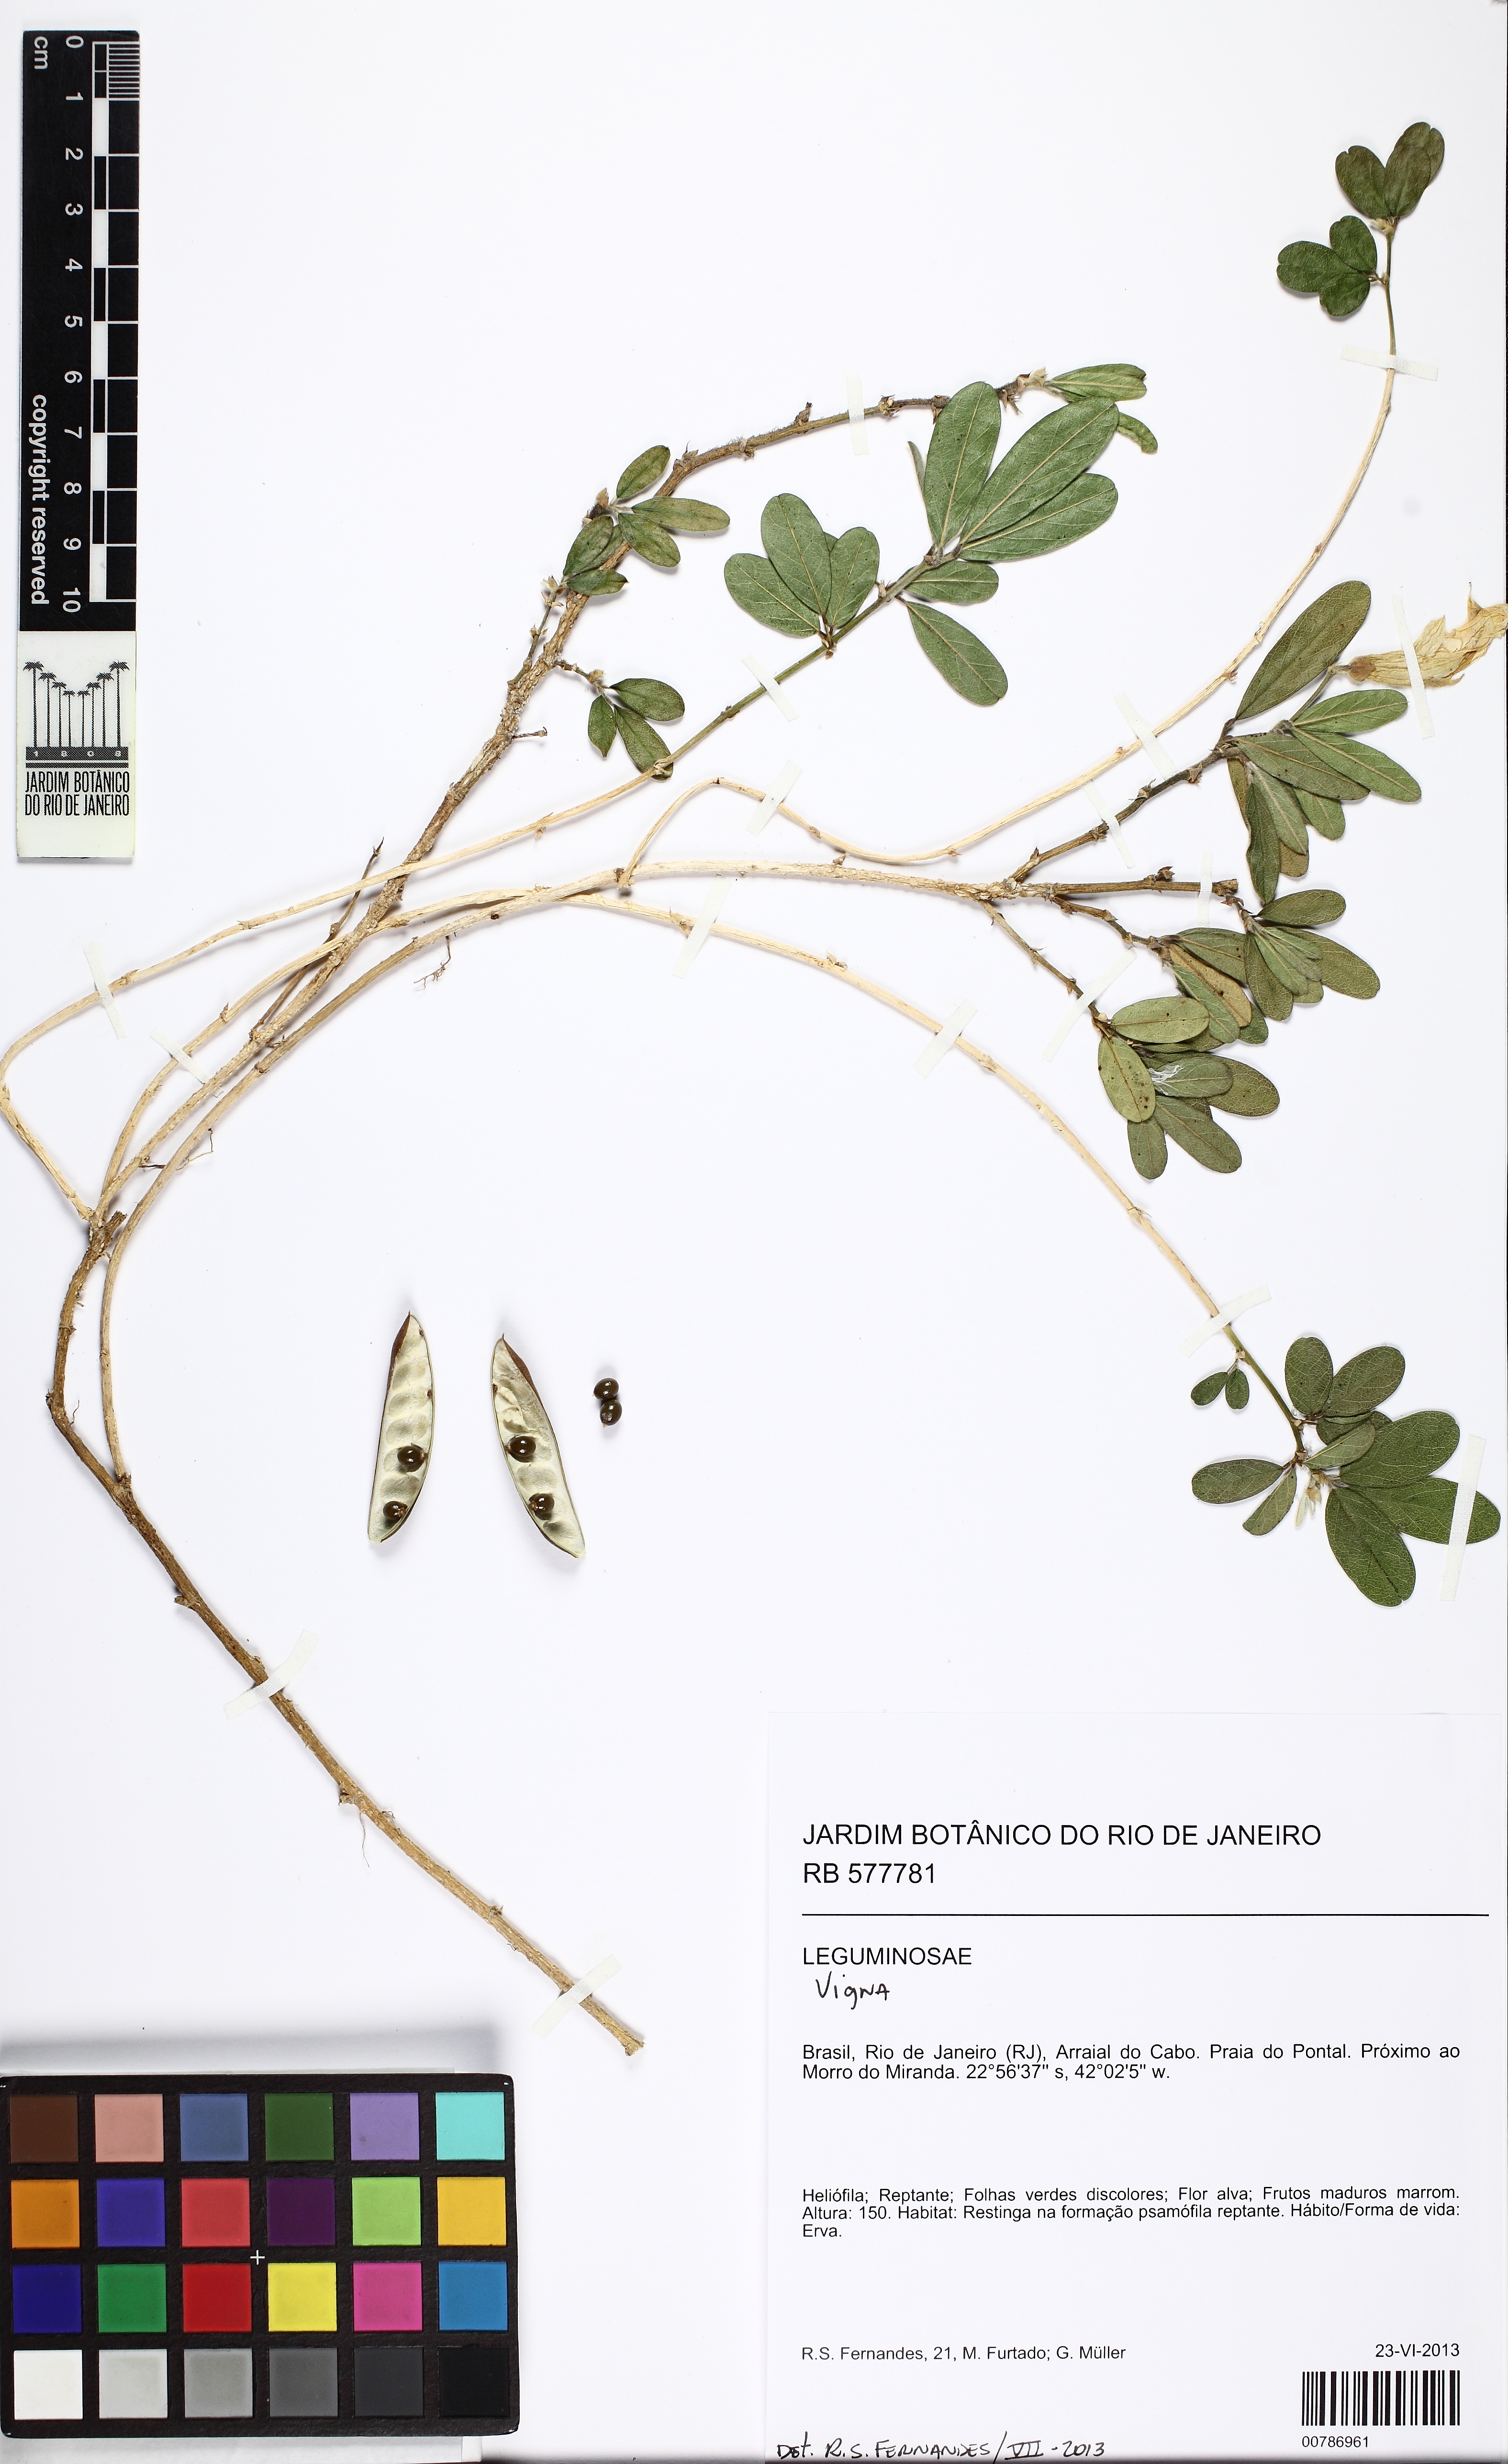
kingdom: Plantae
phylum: Tracheophyta
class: Magnoliopsida
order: Fabales
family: Fabaceae
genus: Vigna
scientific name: Vigna
